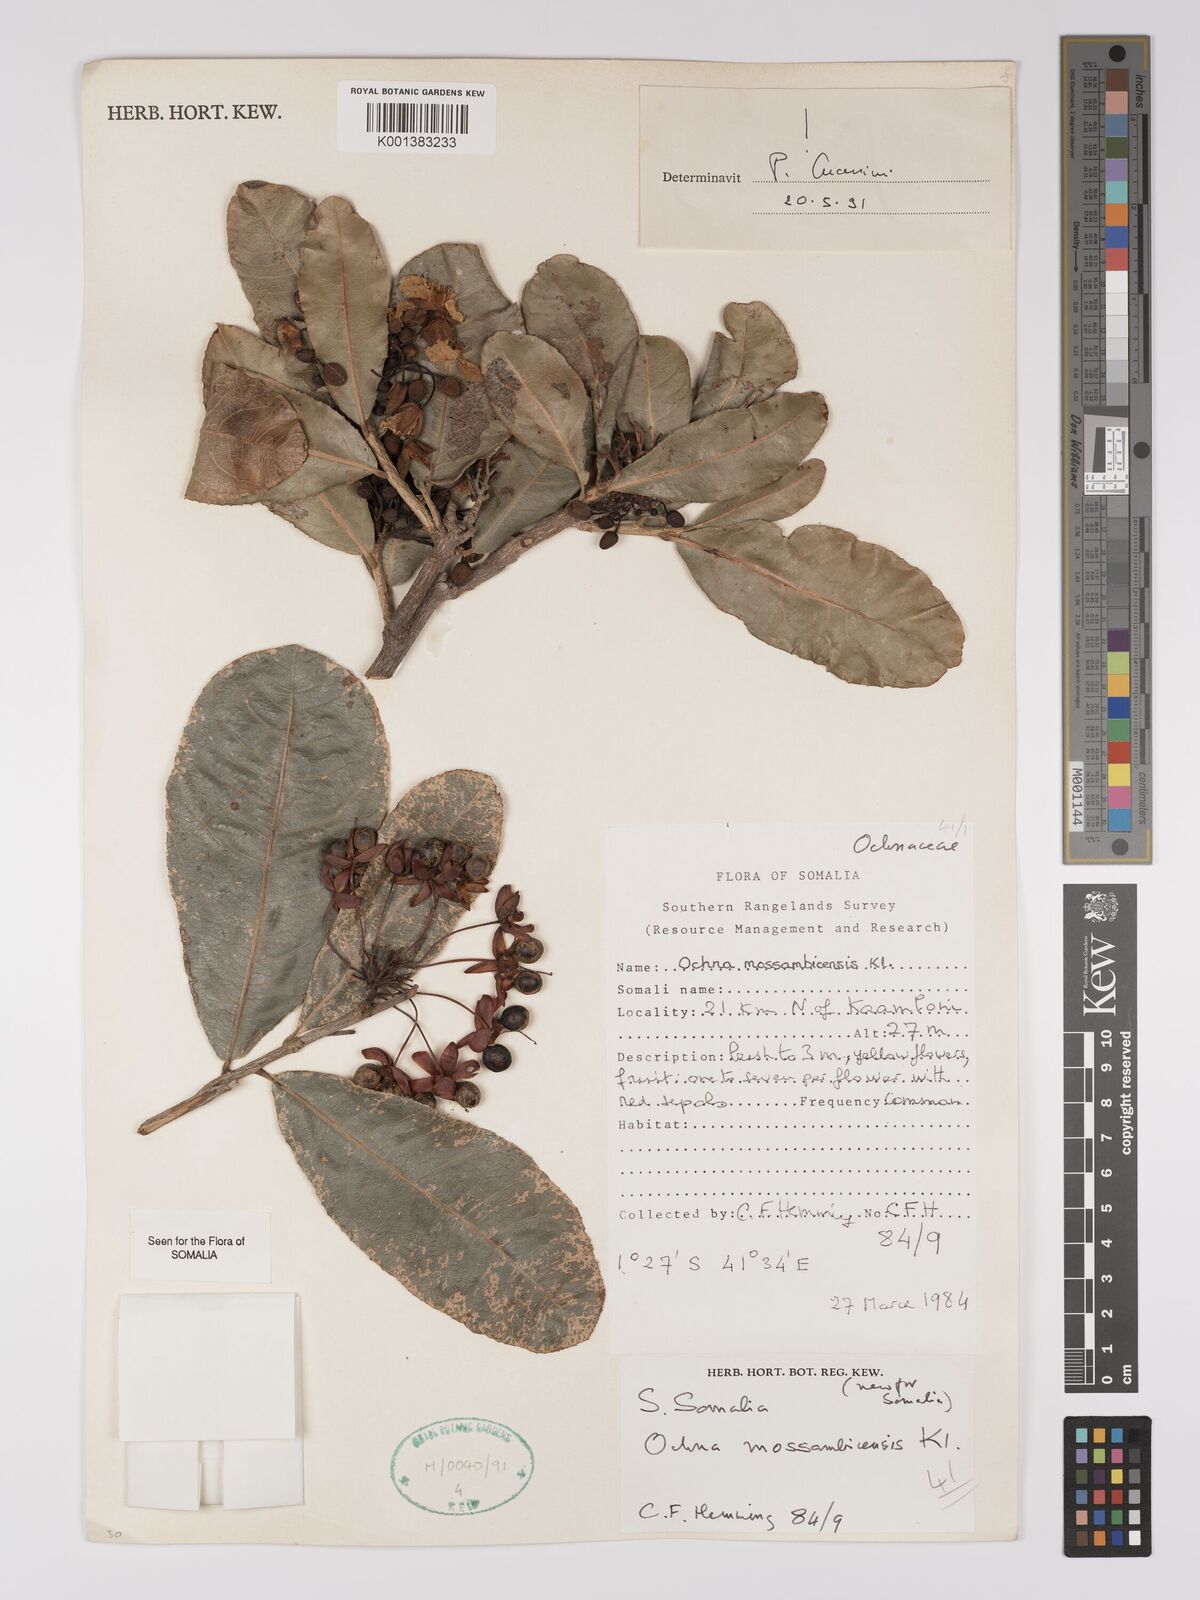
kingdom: Plantae
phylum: Tracheophyta
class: Magnoliopsida
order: Malpighiales
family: Ochnaceae
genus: Ochna
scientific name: Ochna atropurpurea
